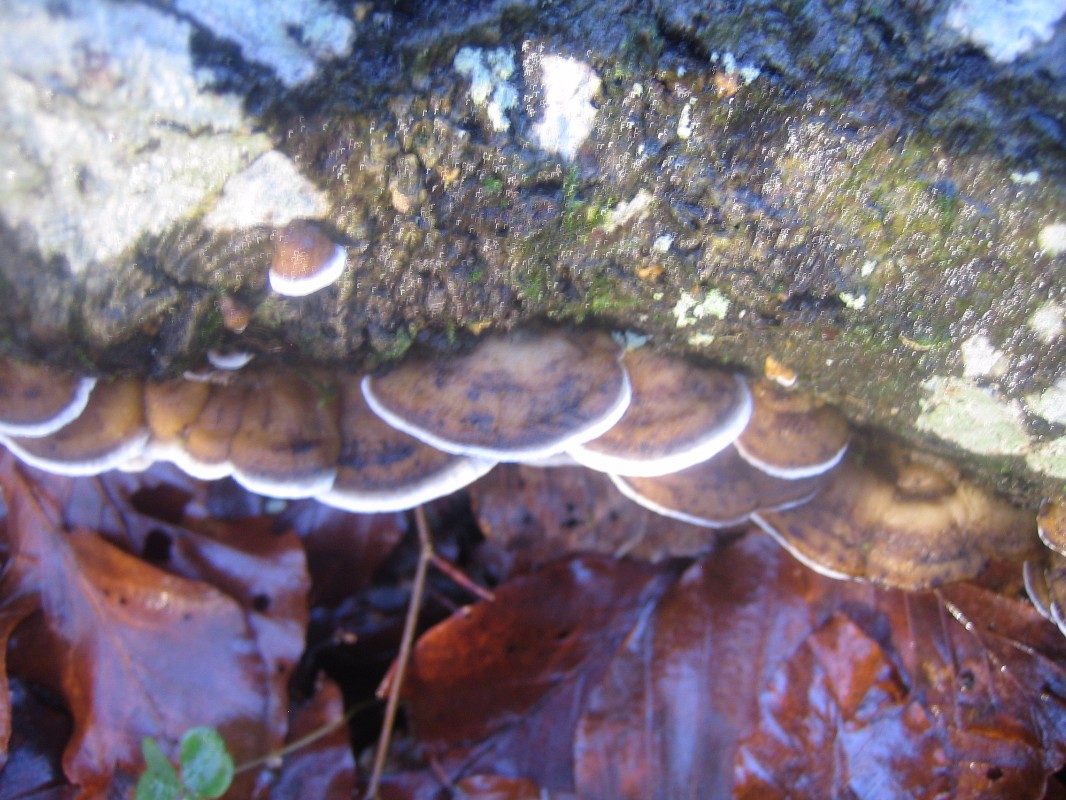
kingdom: Fungi
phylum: Basidiomycota
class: Agaricomycetes
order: Polyporales
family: Phanerochaetaceae
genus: Bjerkandera
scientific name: Bjerkandera adusta
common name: sveden sodporesvamp
